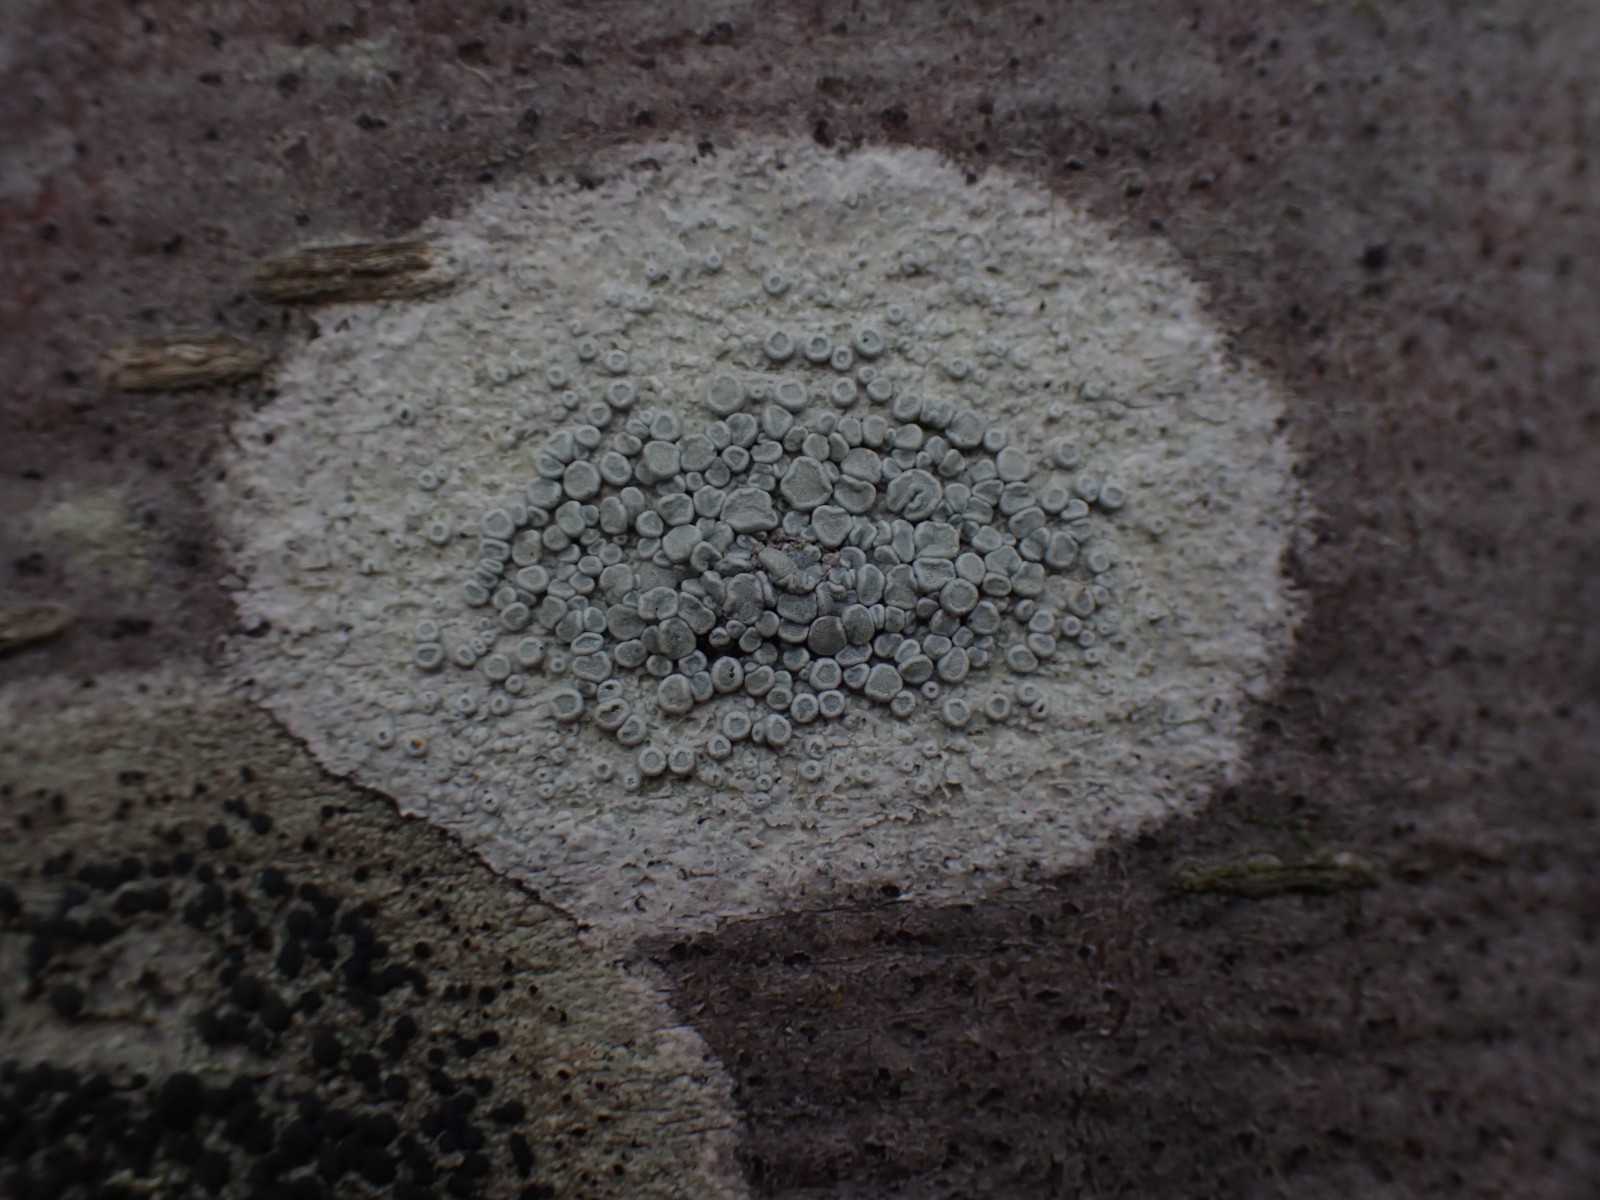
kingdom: Fungi
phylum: Ascomycota
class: Lecanoromycetes
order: Lecanorales
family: Lecanoraceae
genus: Glaucomaria
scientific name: Glaucomaria carpinea
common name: hviddugget kantskivelav
